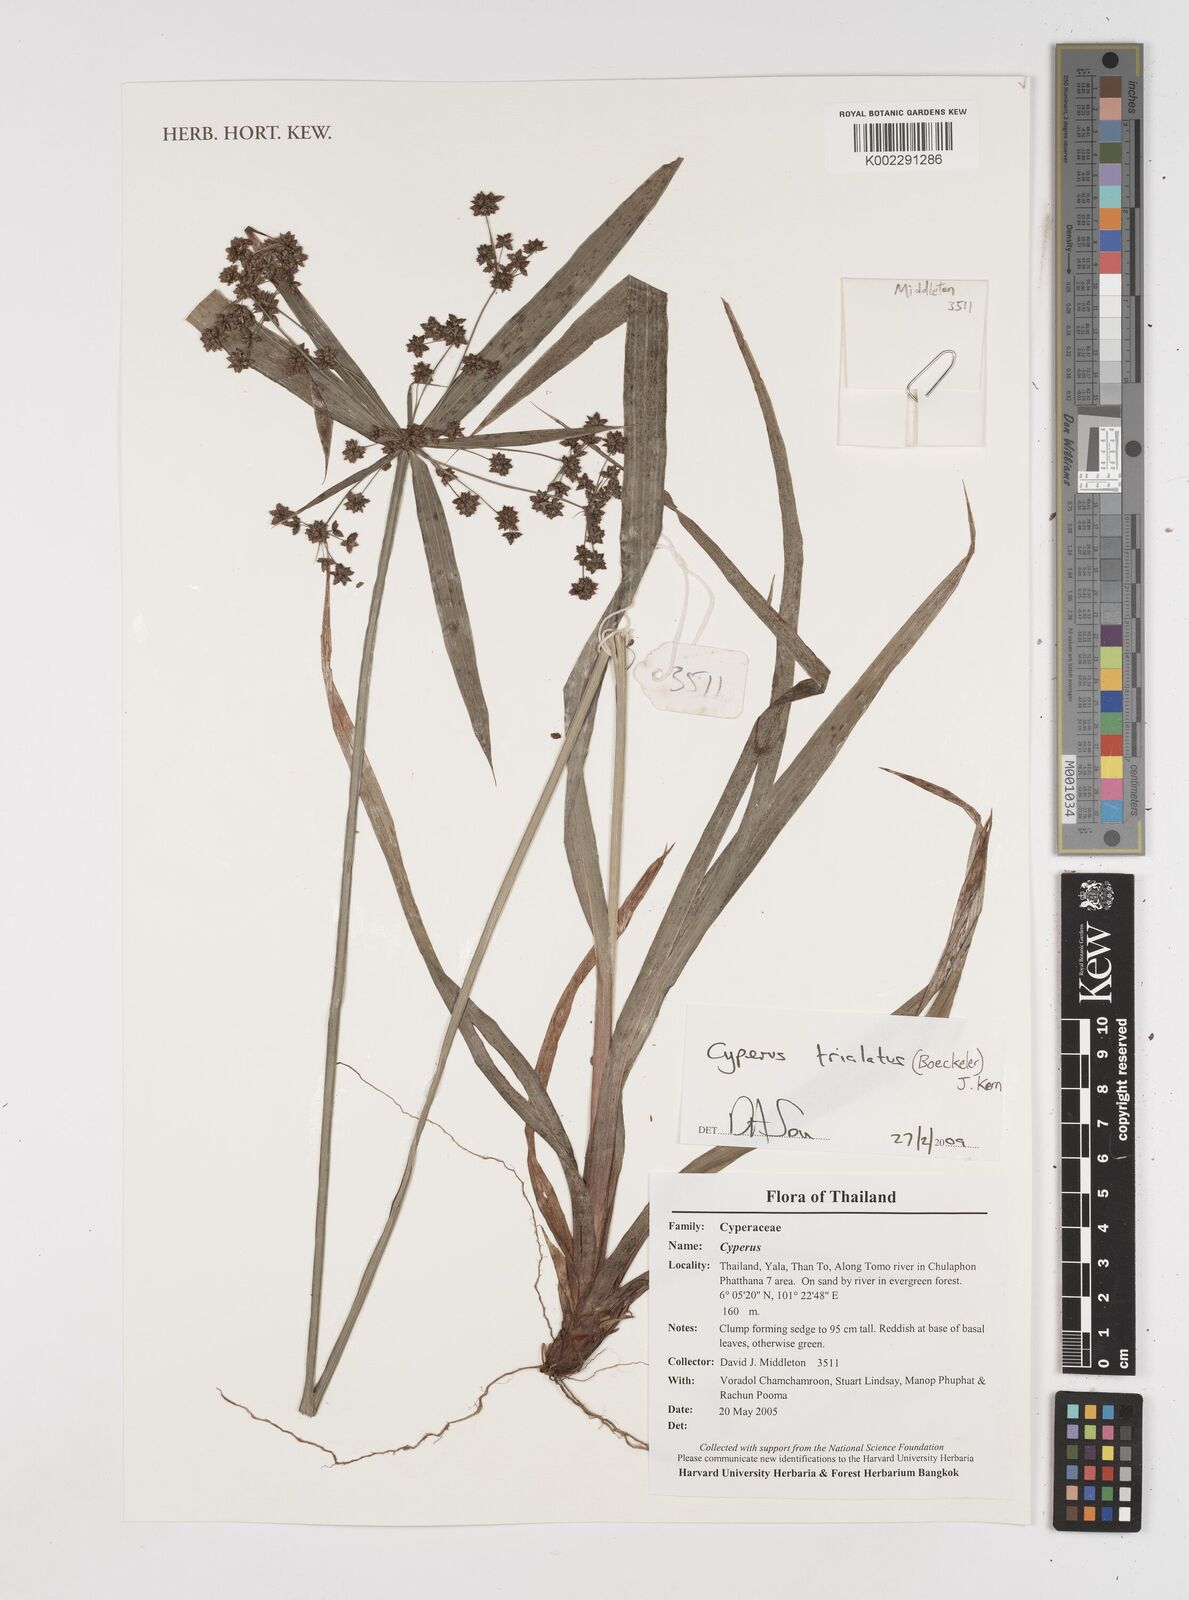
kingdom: Plantae
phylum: Tracheophyta
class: Liliopsida
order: Poales
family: Cyperaceae
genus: Cyperus
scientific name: Cyperus trialatus
